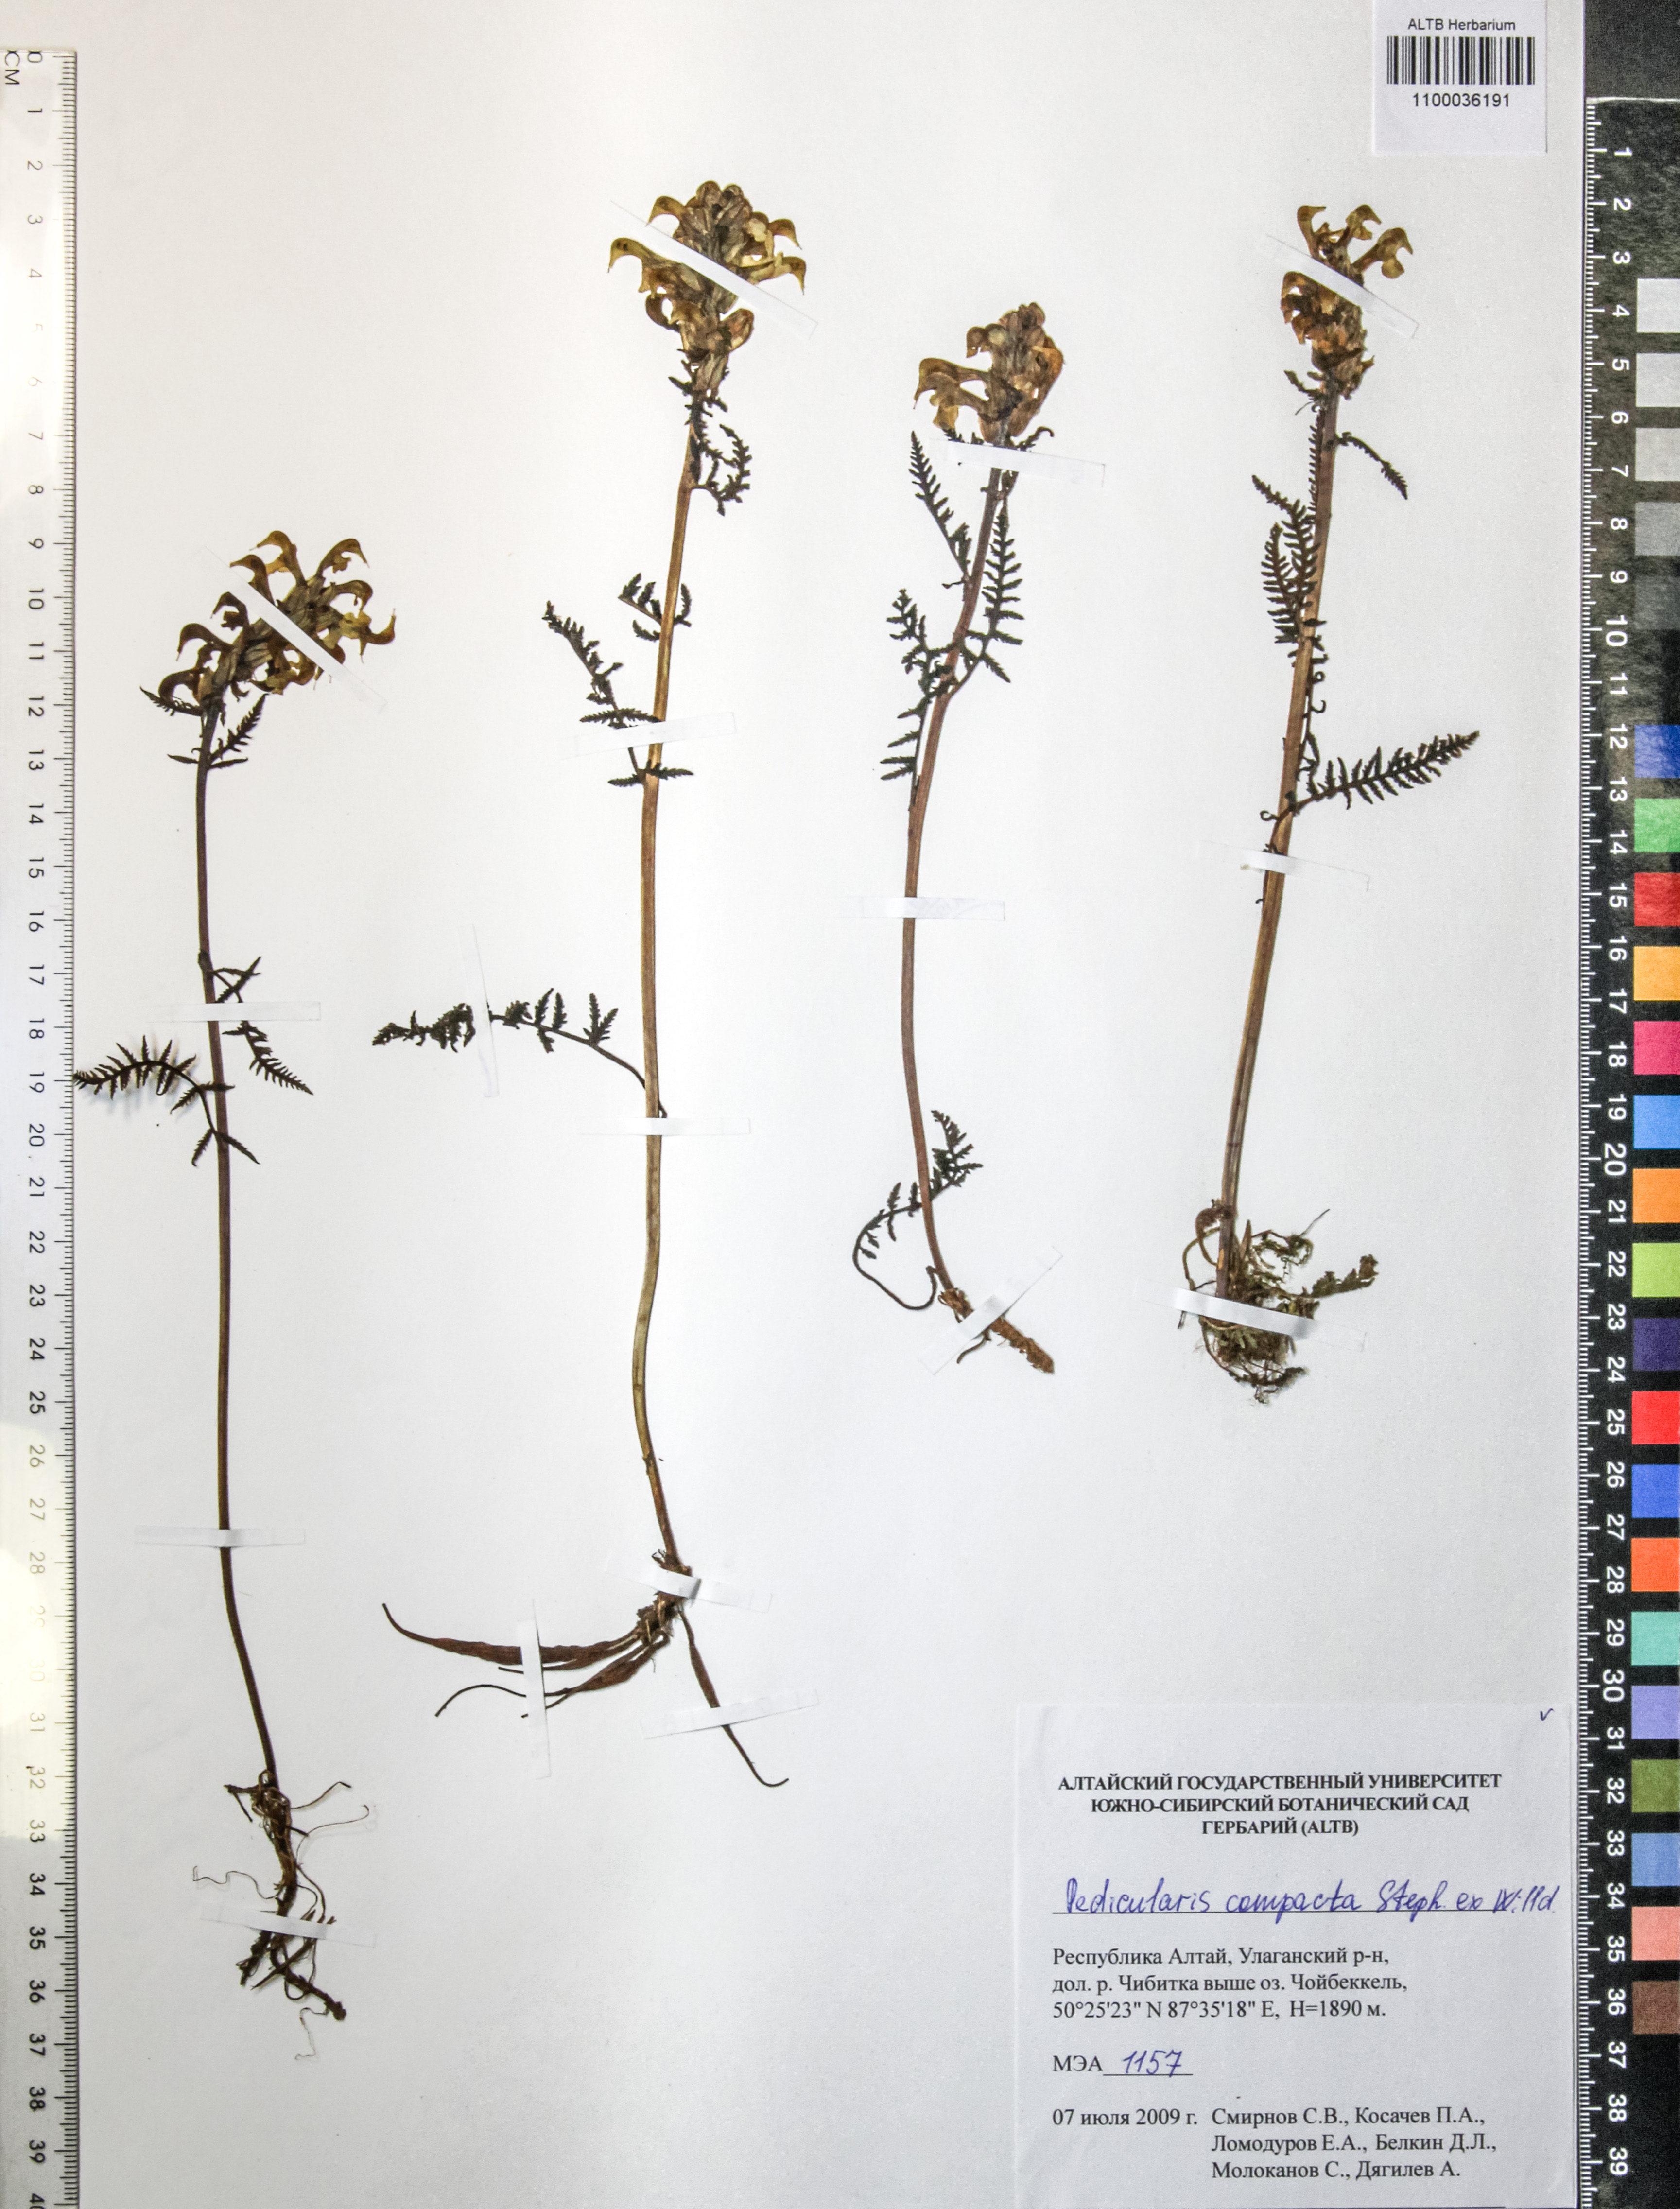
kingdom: Plantae
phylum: Tracheophyta
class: Magnoliopsida
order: Lamiales
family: Orobanchaceae
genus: Pedicularis
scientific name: Pedicularis compacta
